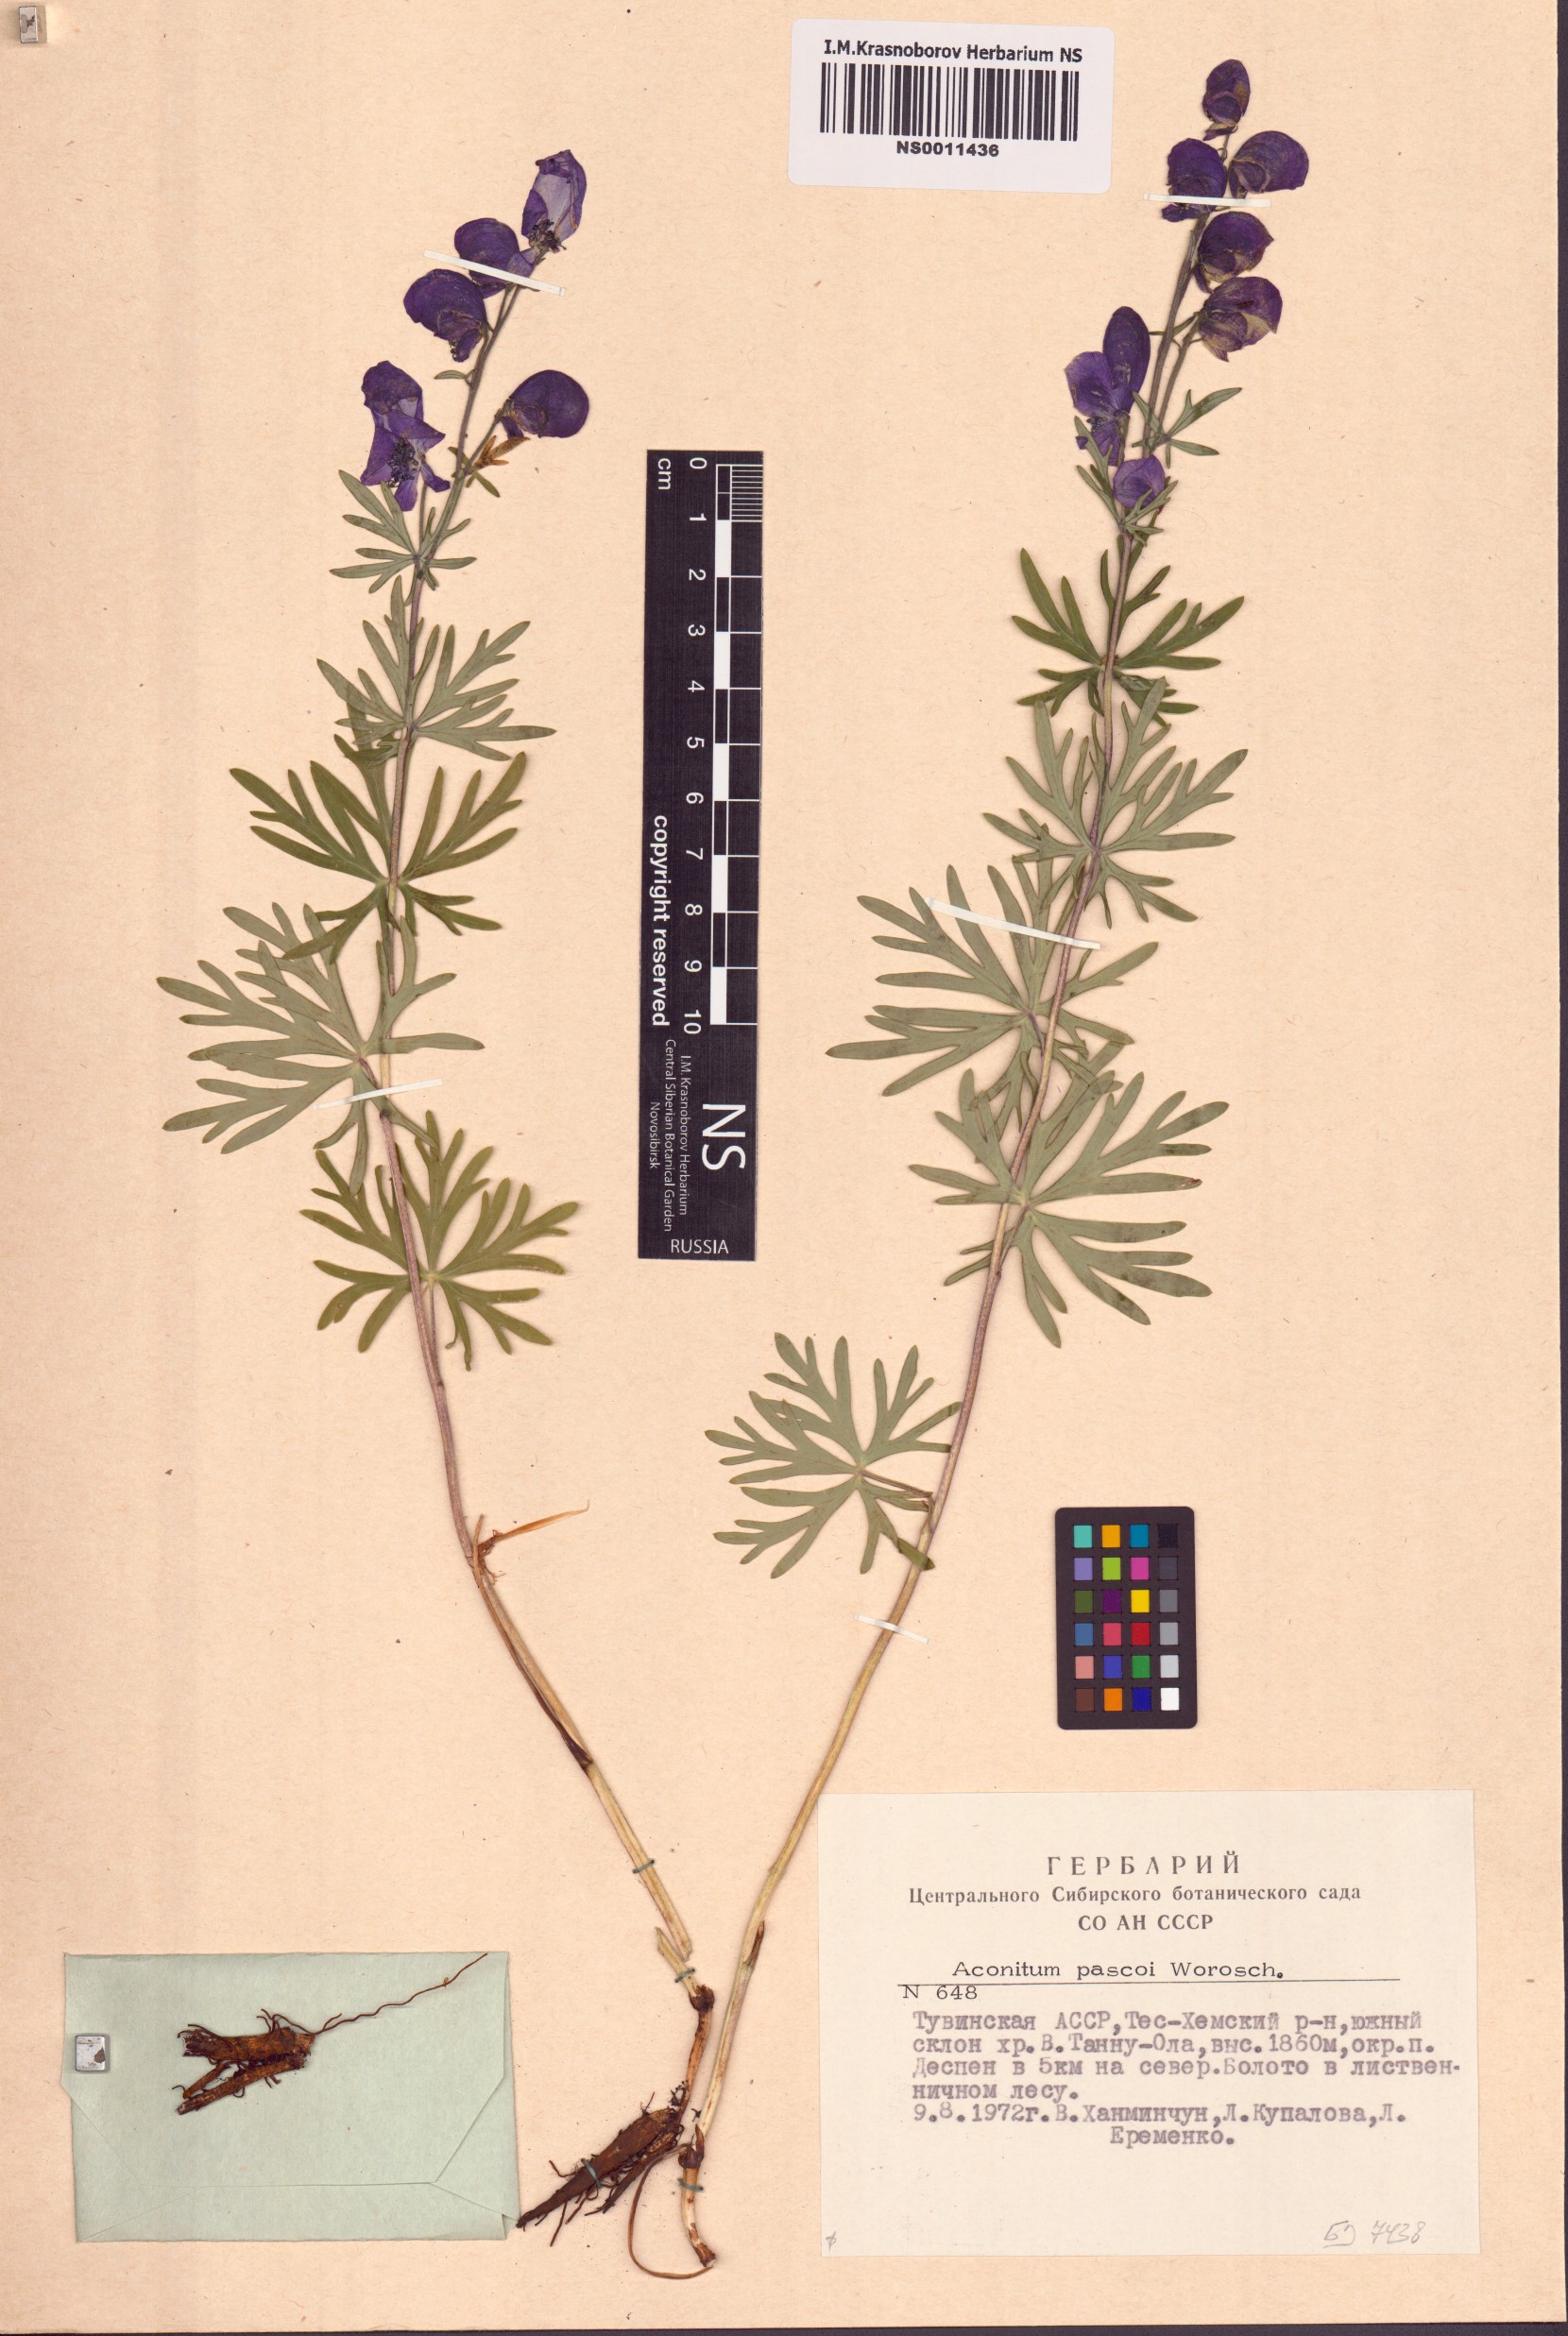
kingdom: Plantae
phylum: Tracheophyta
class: Magnoliopsida
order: Ranunculales
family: Ranunculaceae
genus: Aconitum
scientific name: Aconitum pascoi
